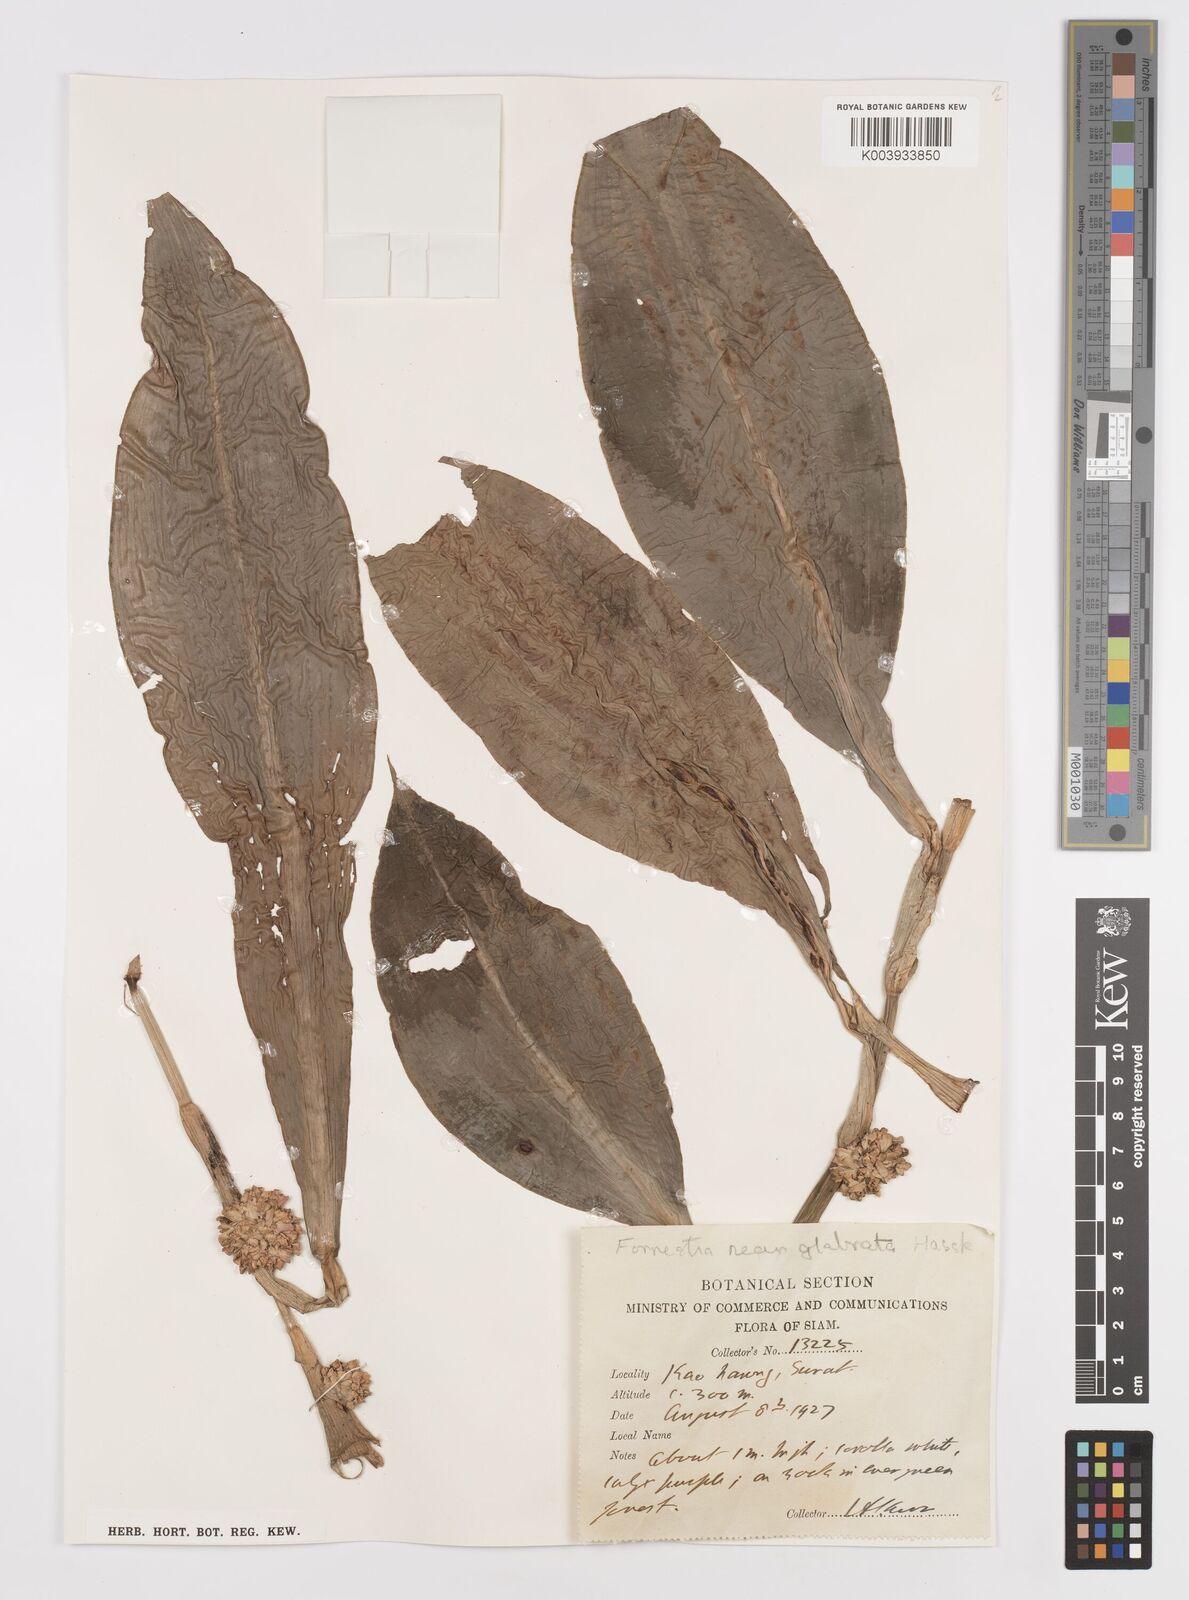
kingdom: Plantae
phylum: Tracheophyta
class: Liliopsida
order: Commelinales
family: Commelinaceae
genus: Amischotolype
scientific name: Amischotolype glabrata
